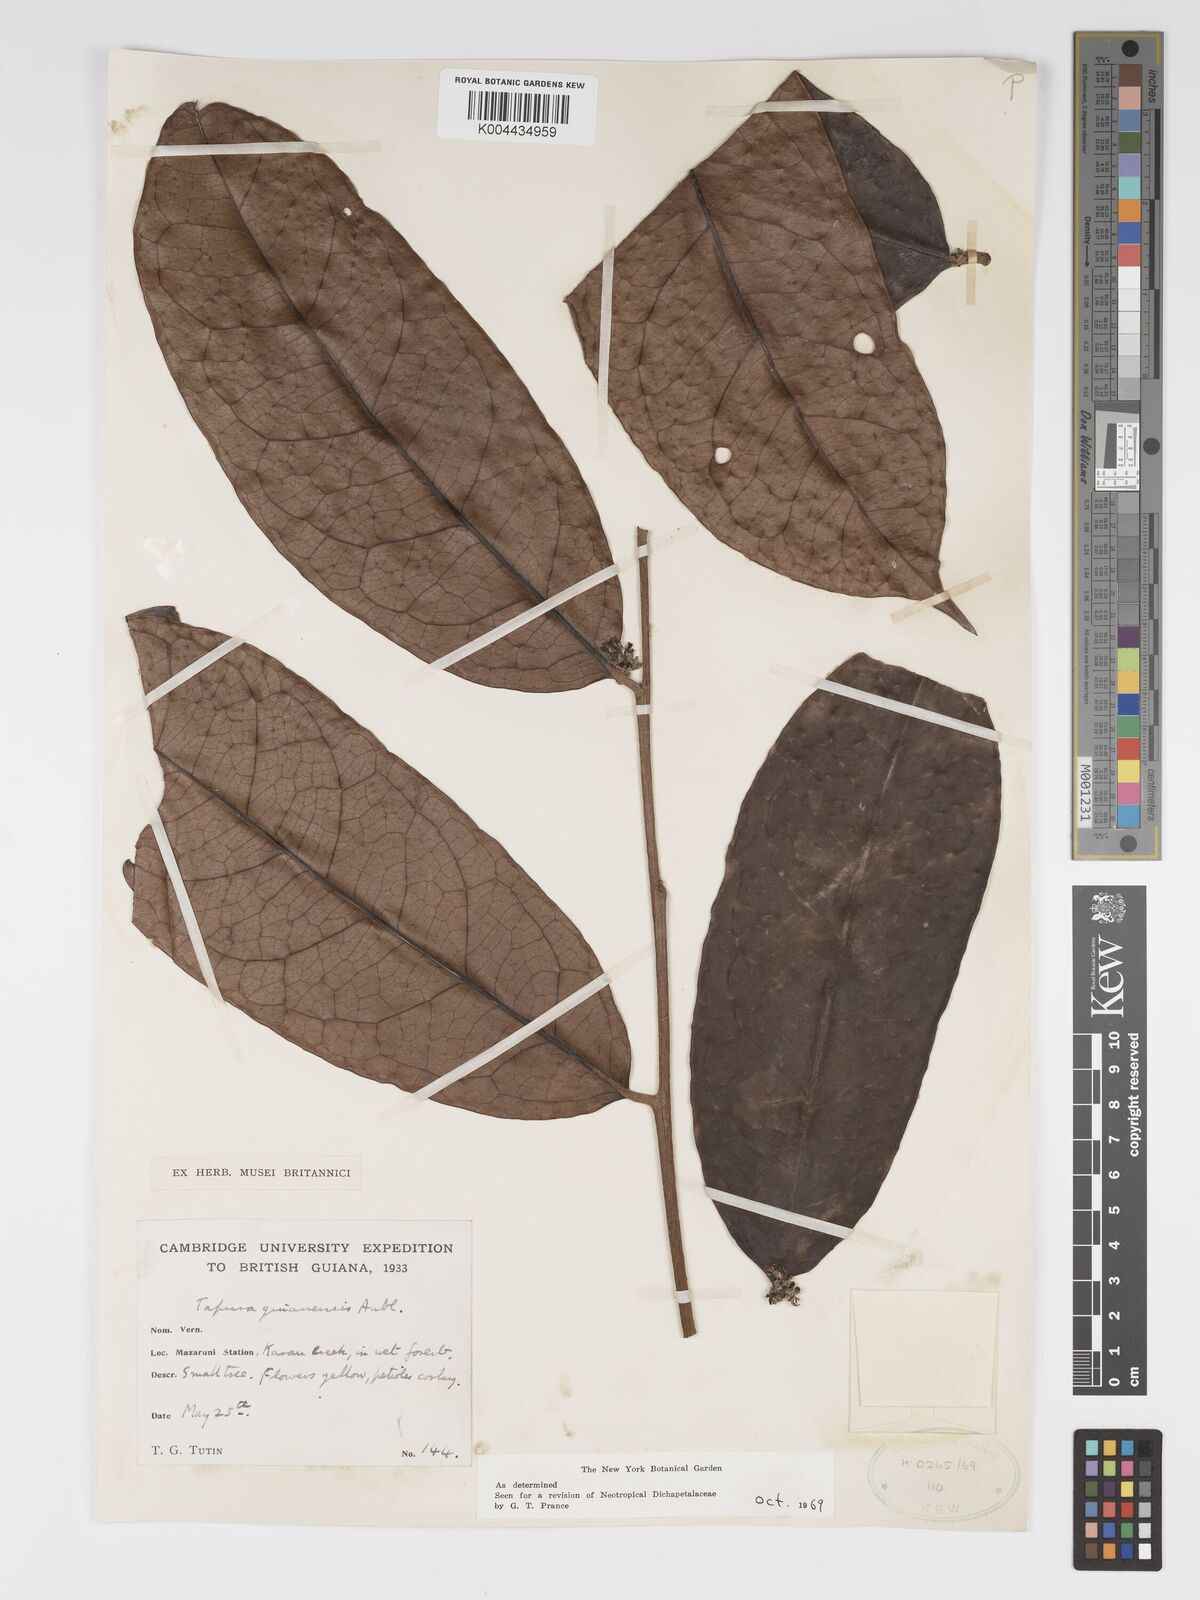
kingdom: Plantae
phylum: Tracheophyta
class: Magnoliopsida
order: Malpighiales
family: Dichapetalaceae
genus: Tapura
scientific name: Tapura guianensis
